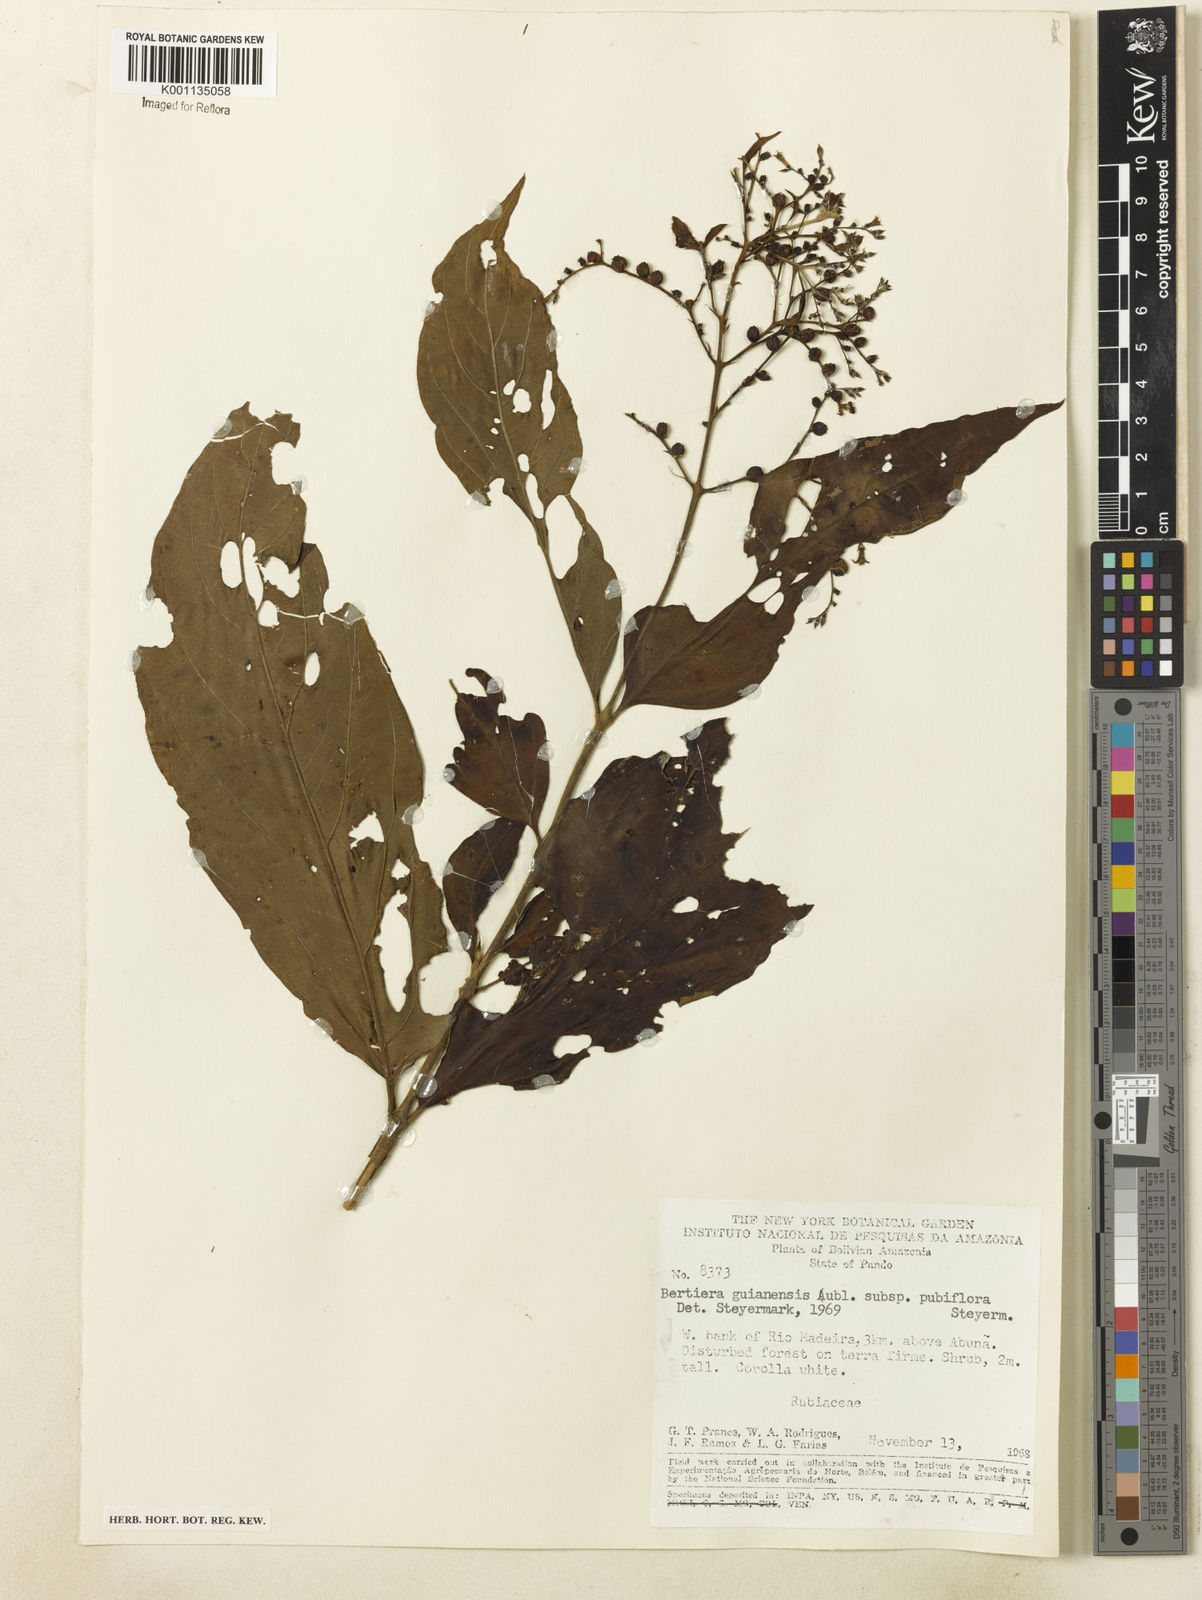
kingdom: Plantae
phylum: Tracheophyta
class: Magnoliopsida
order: Gentianales
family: Rubiaceae
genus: Bertiera
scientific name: Bertiera guianensis
